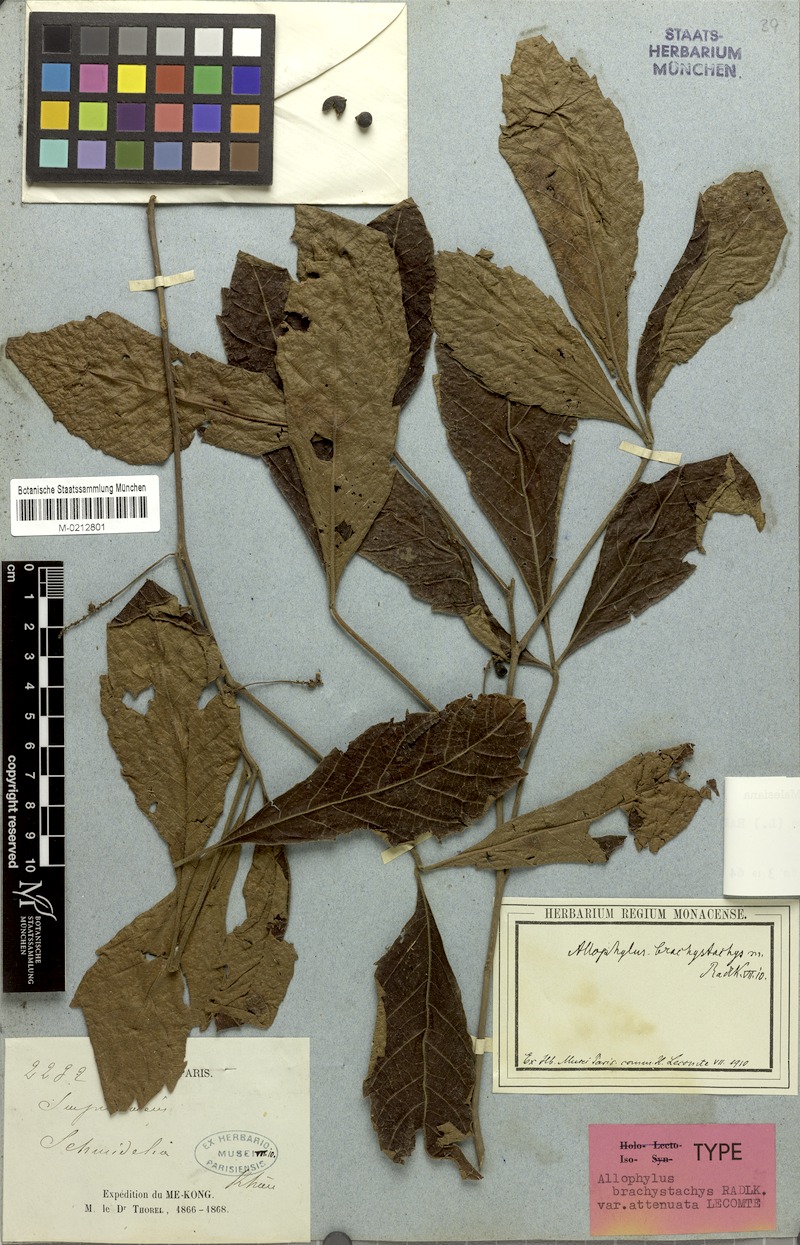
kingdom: Plantae
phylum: Tracheophyta
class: Magnoliopsida
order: Sapindales
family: Sapindaceae
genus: Allophylus
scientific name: Allophylus brachystachys
